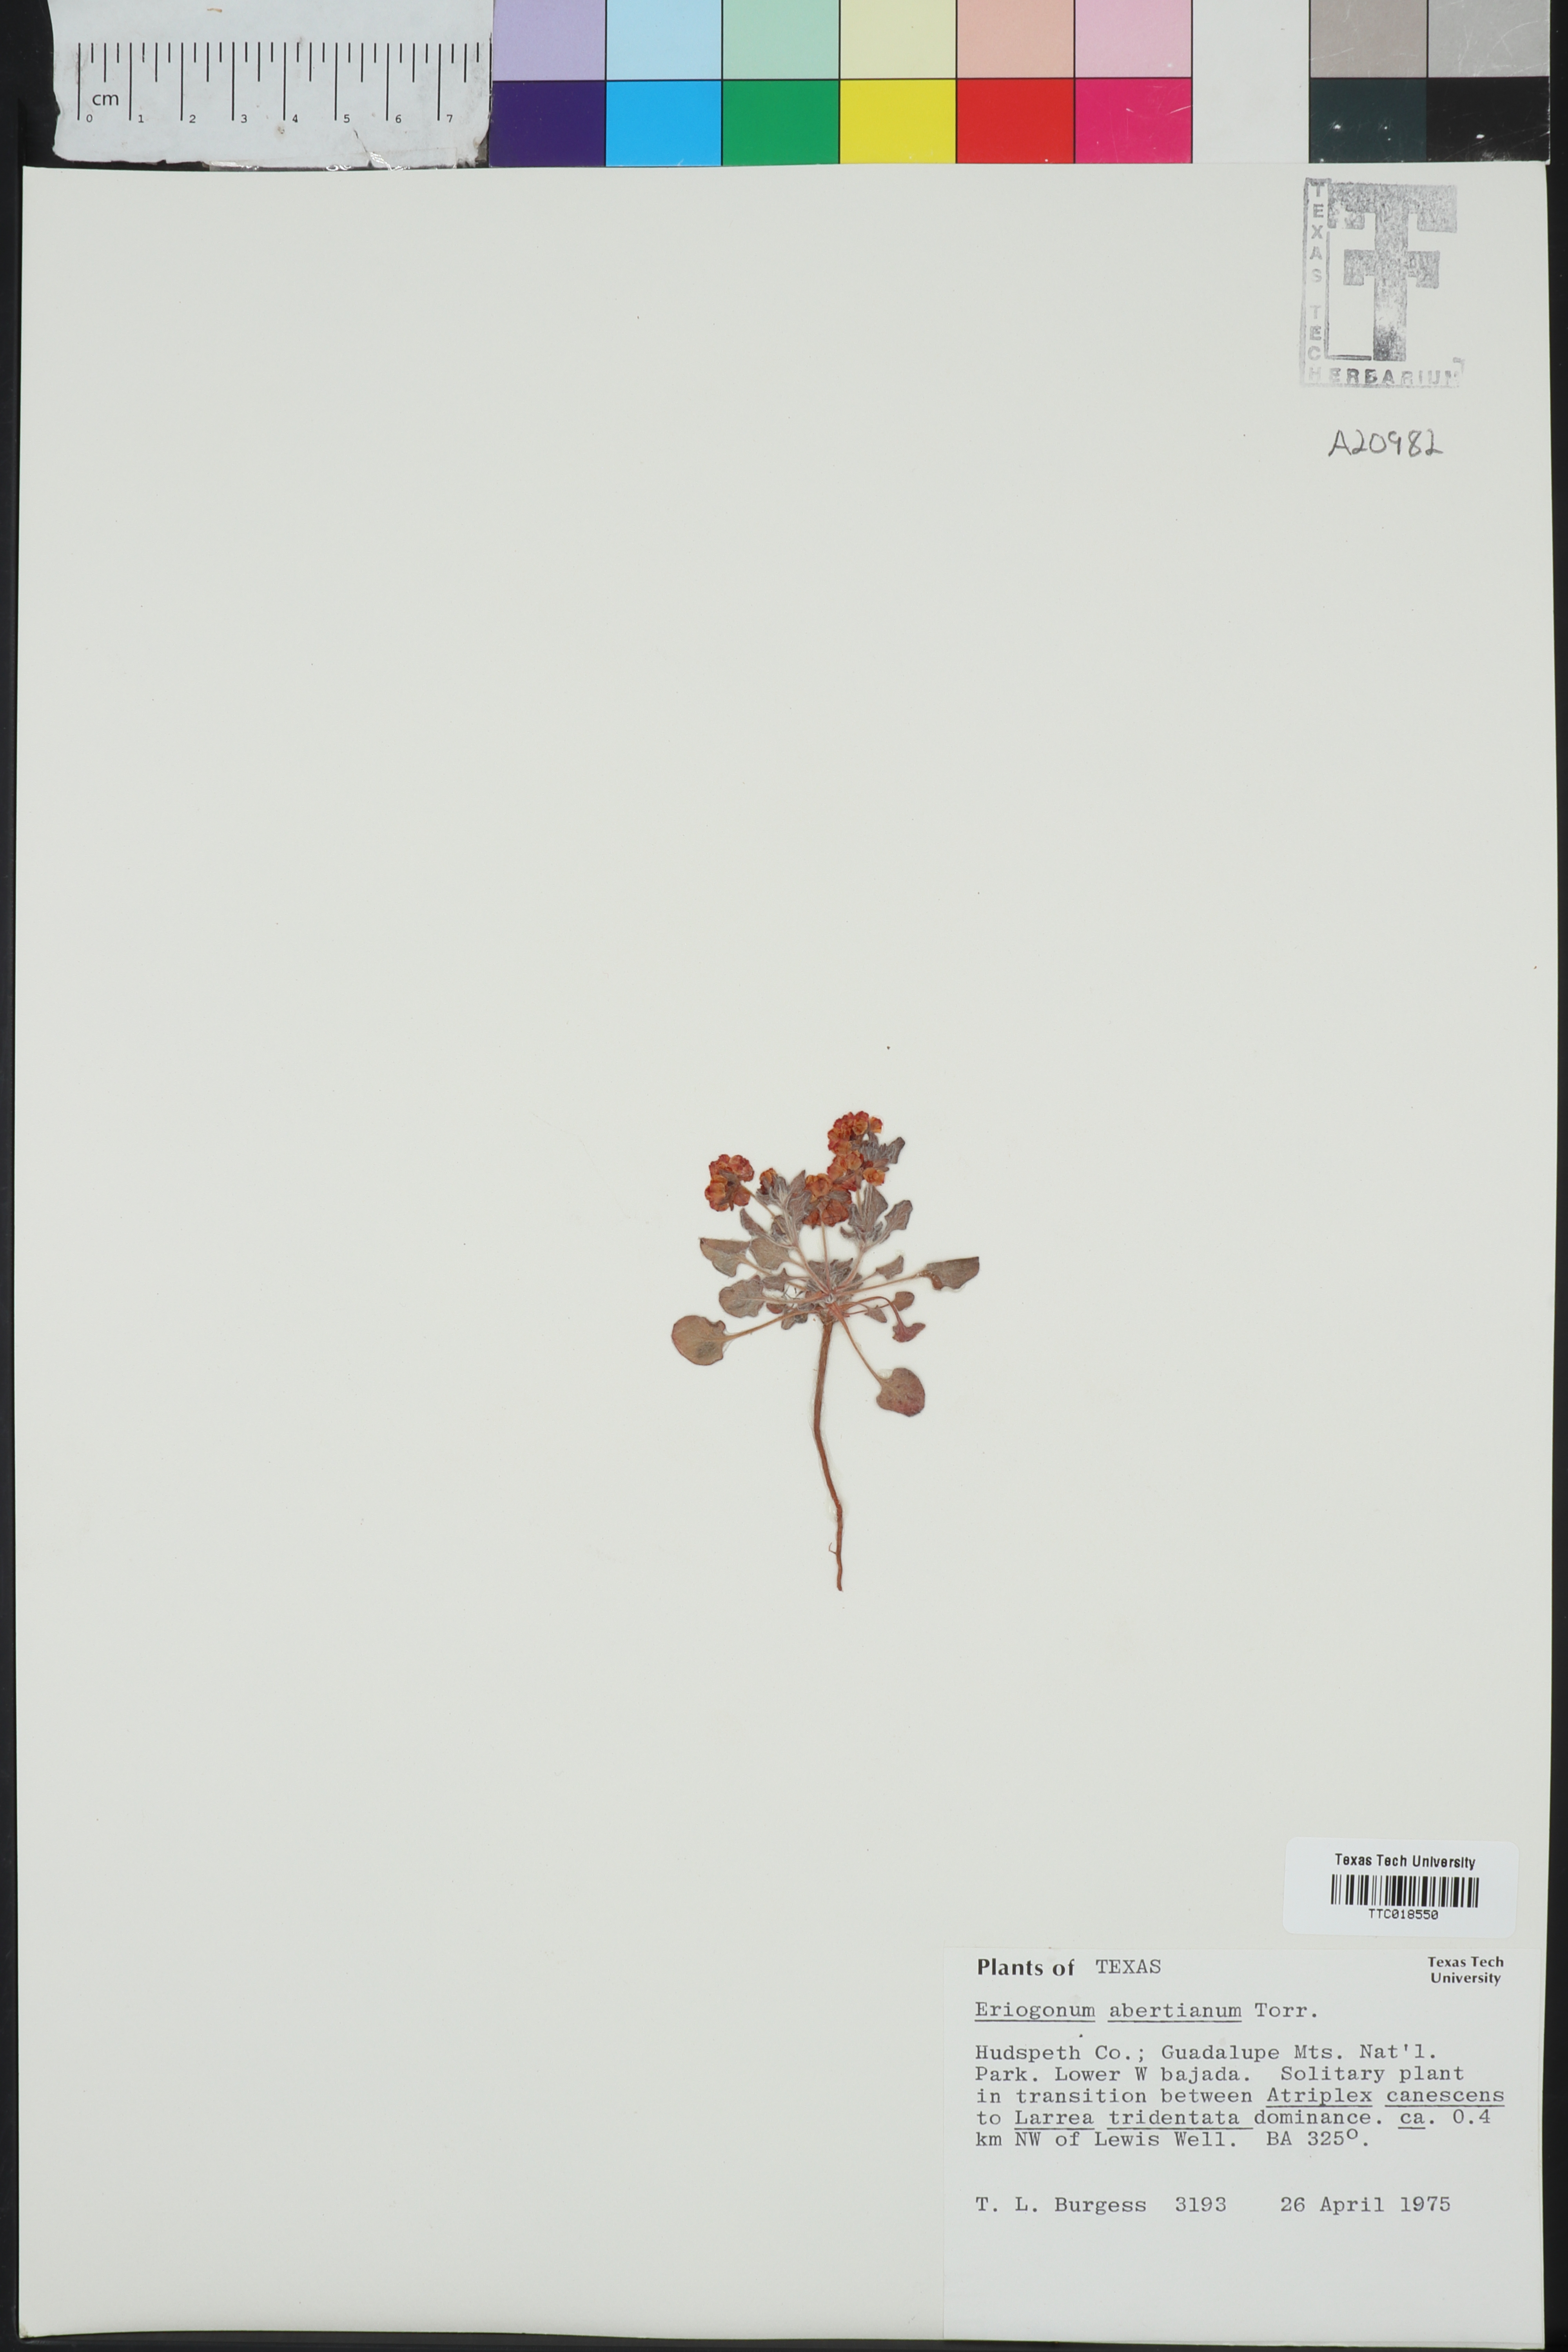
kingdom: Plantae
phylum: Tracheophyta
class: Magnoliopsida
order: Caryophyllales
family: Polygonaceae
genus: Eriogonum
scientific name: Eriogonum abertianum
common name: Abert's wild buckwheat
